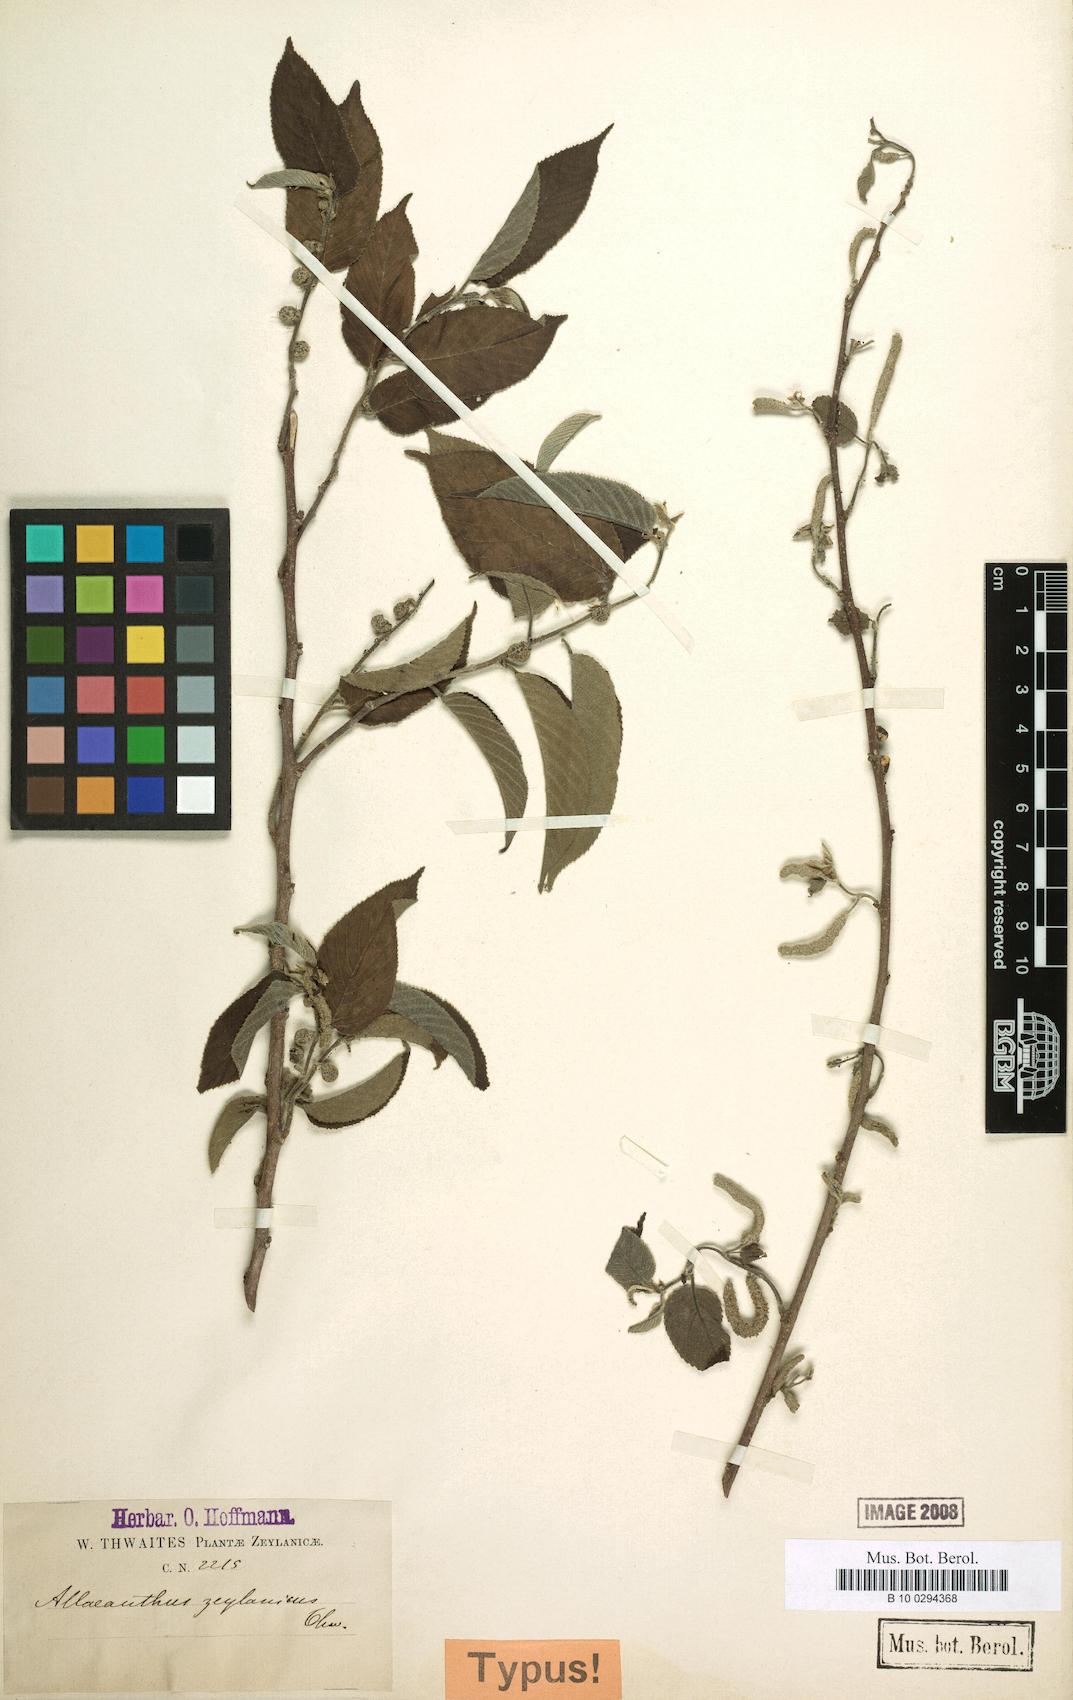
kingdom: Plantae
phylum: Tracheophyta
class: Magnoliopsida
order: Rosales
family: Moraceae
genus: Allaeanthus
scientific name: Allaeanthus zeylanicus
